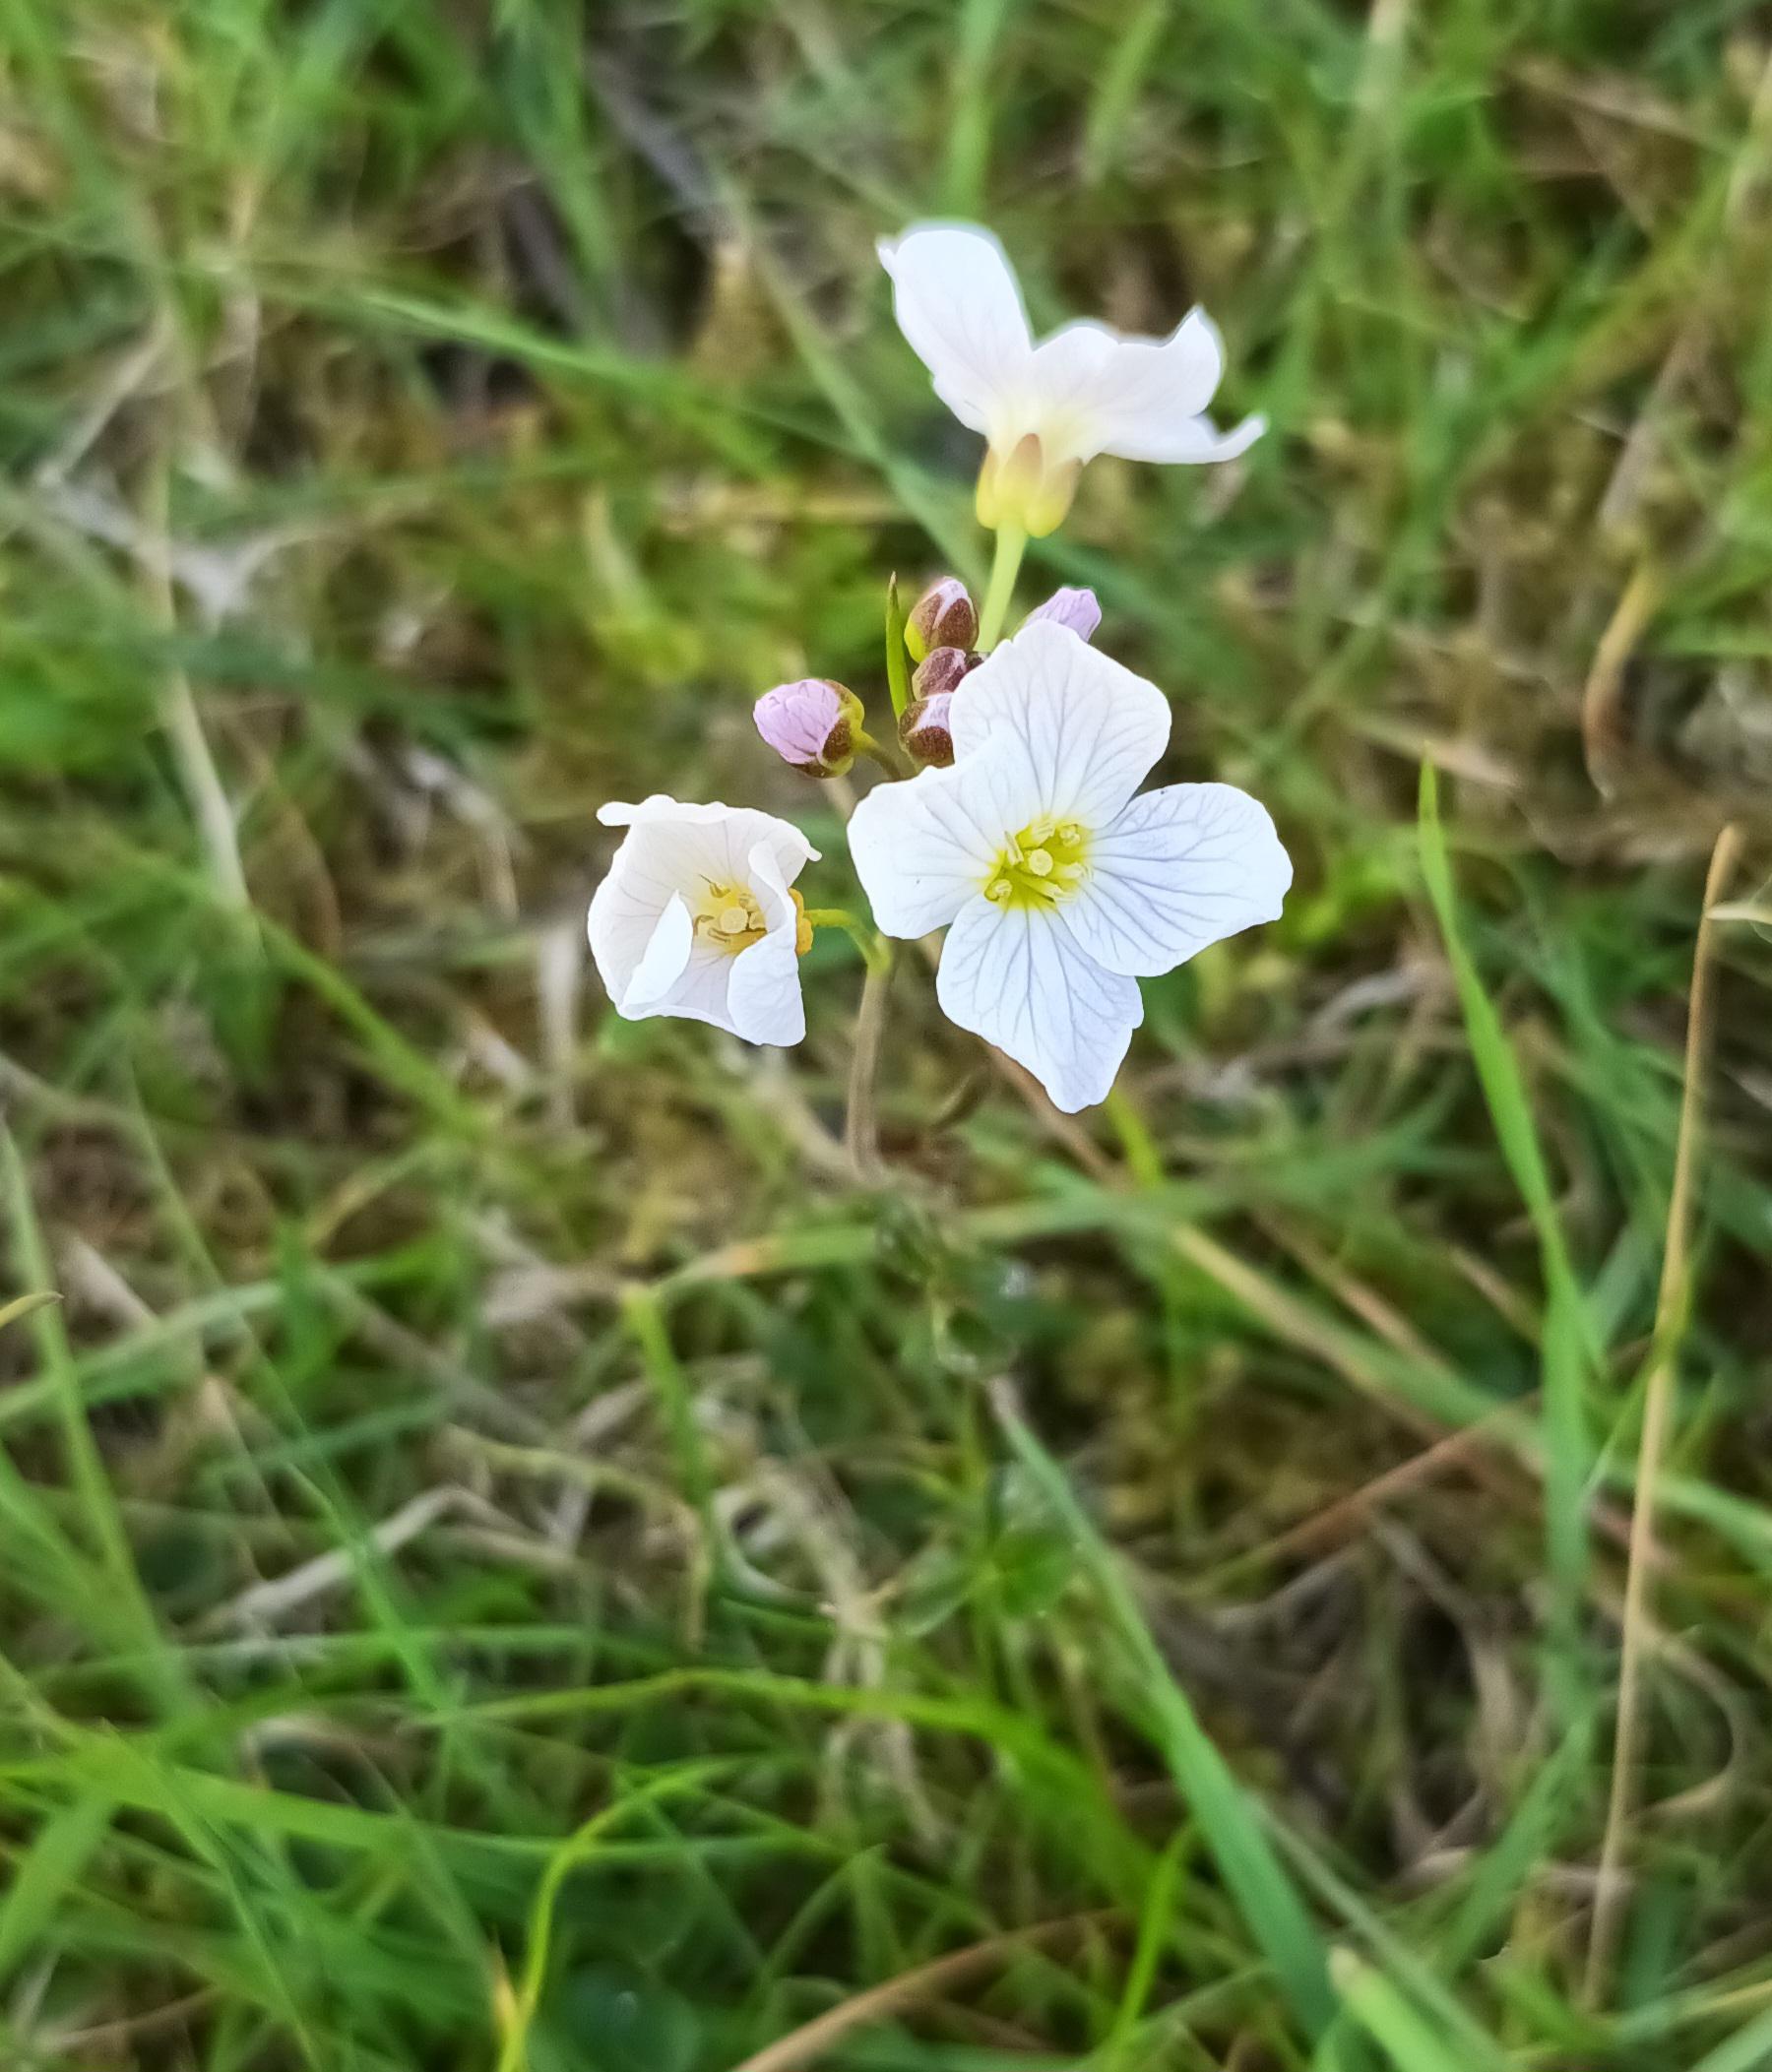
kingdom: Plantae
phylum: Tracheophyta
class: Magnoliopsida
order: Brassicales
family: Brassicaceae
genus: Cardamine
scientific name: Cardamine pratensis
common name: Engkarse
